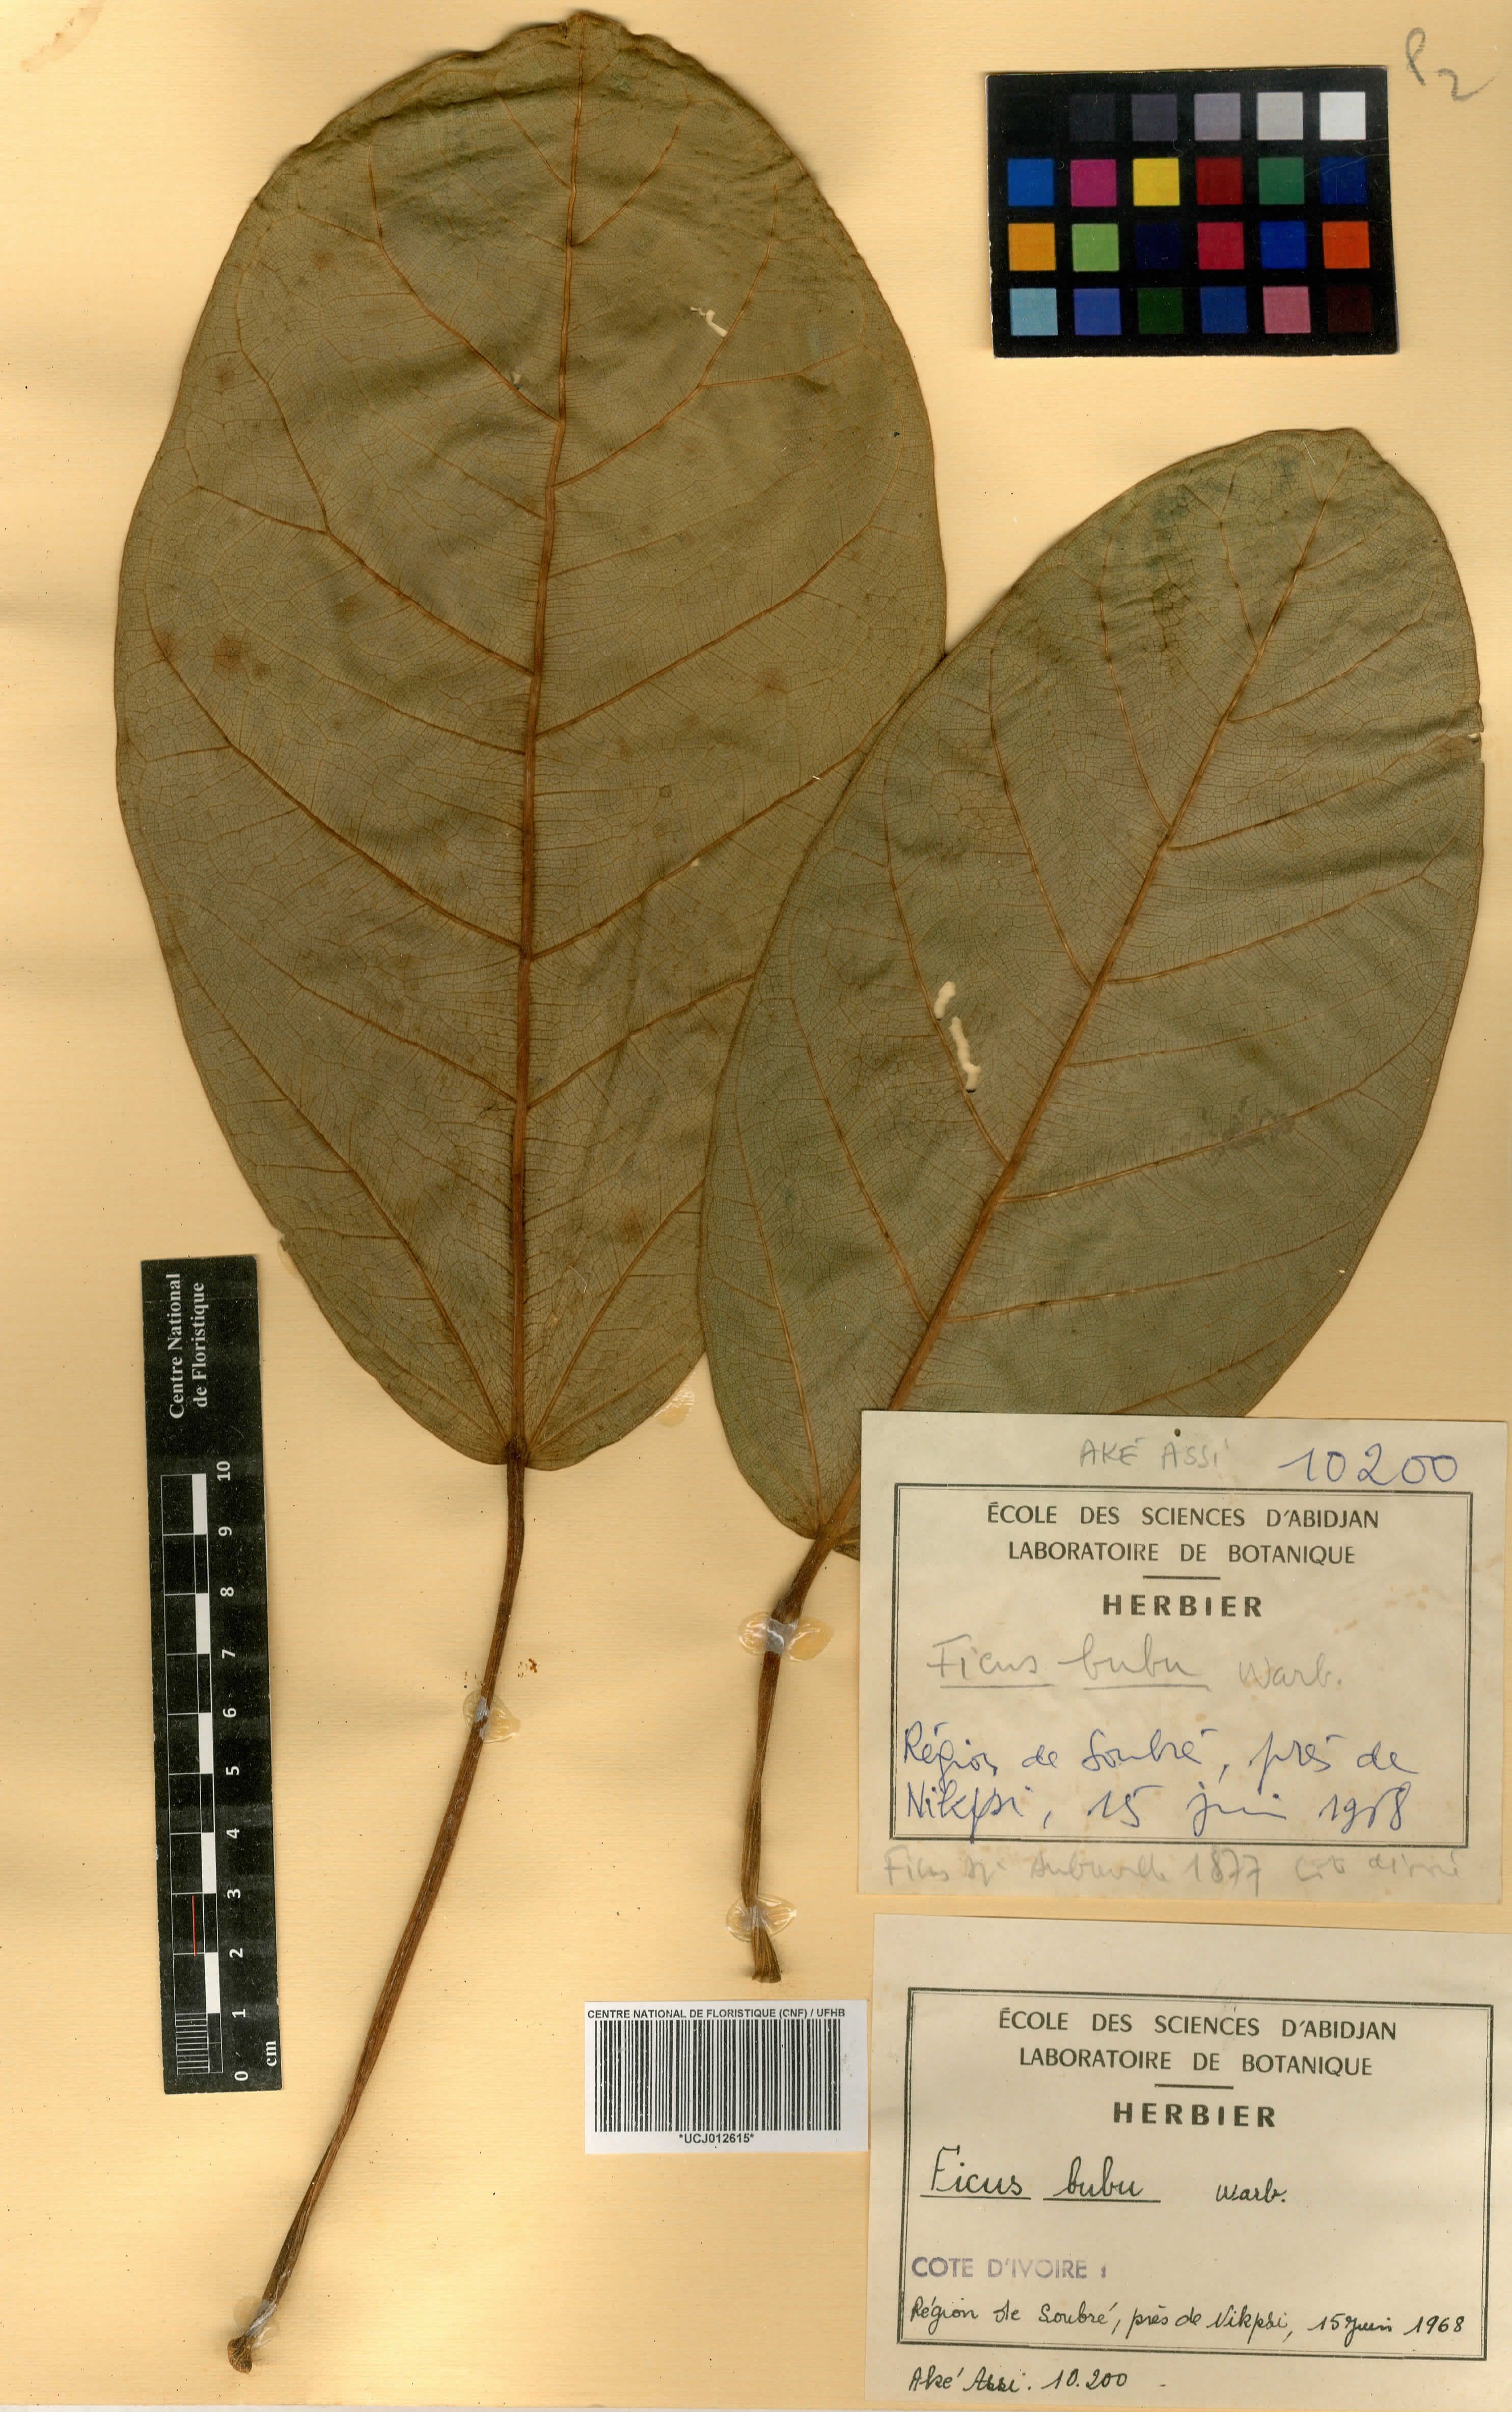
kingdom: Plantae
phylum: Tracheophyta
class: Magnoliopsida
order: Rosales
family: Moraceae
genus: Ficus
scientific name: Ficus bubu
